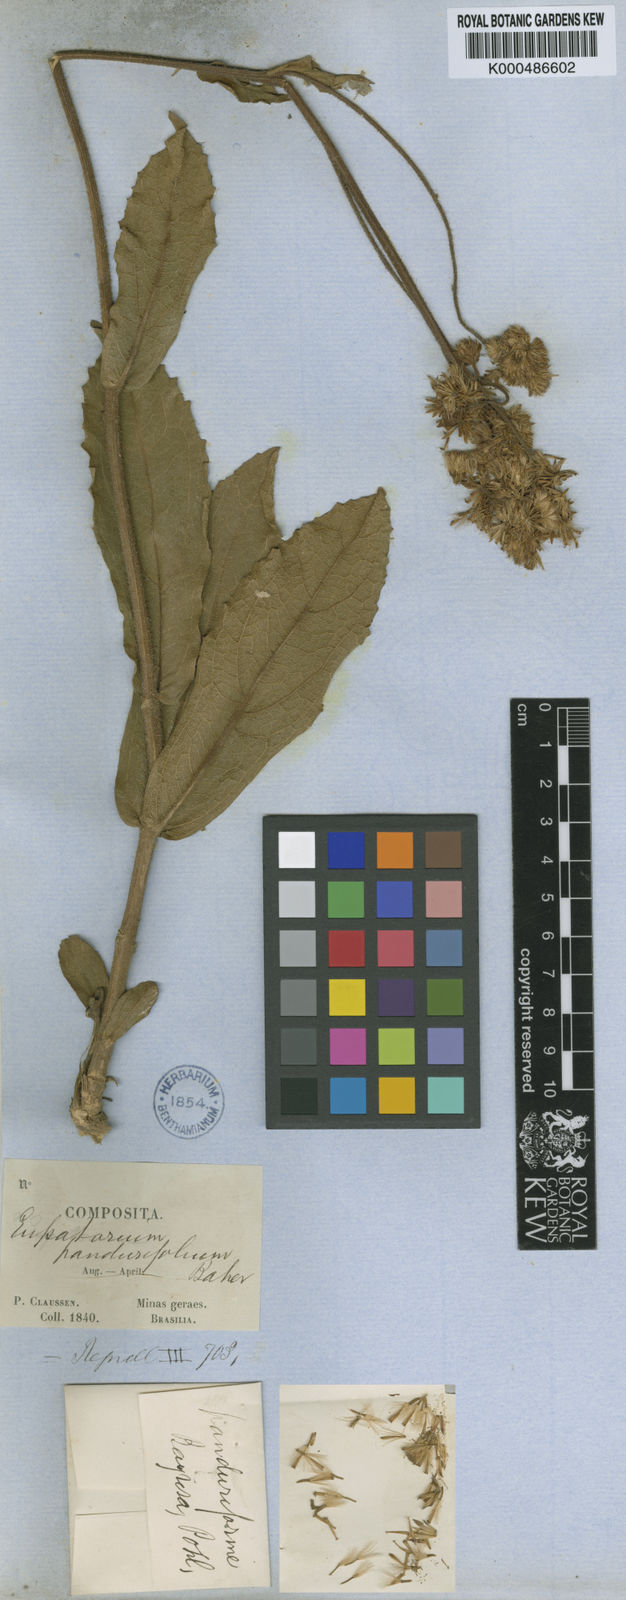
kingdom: Plantae
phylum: Tracheophyta
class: Magnoliopsida
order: Asterales
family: Asteraceae
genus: Heterocondylus
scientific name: Heterocondylus amphidictyus
